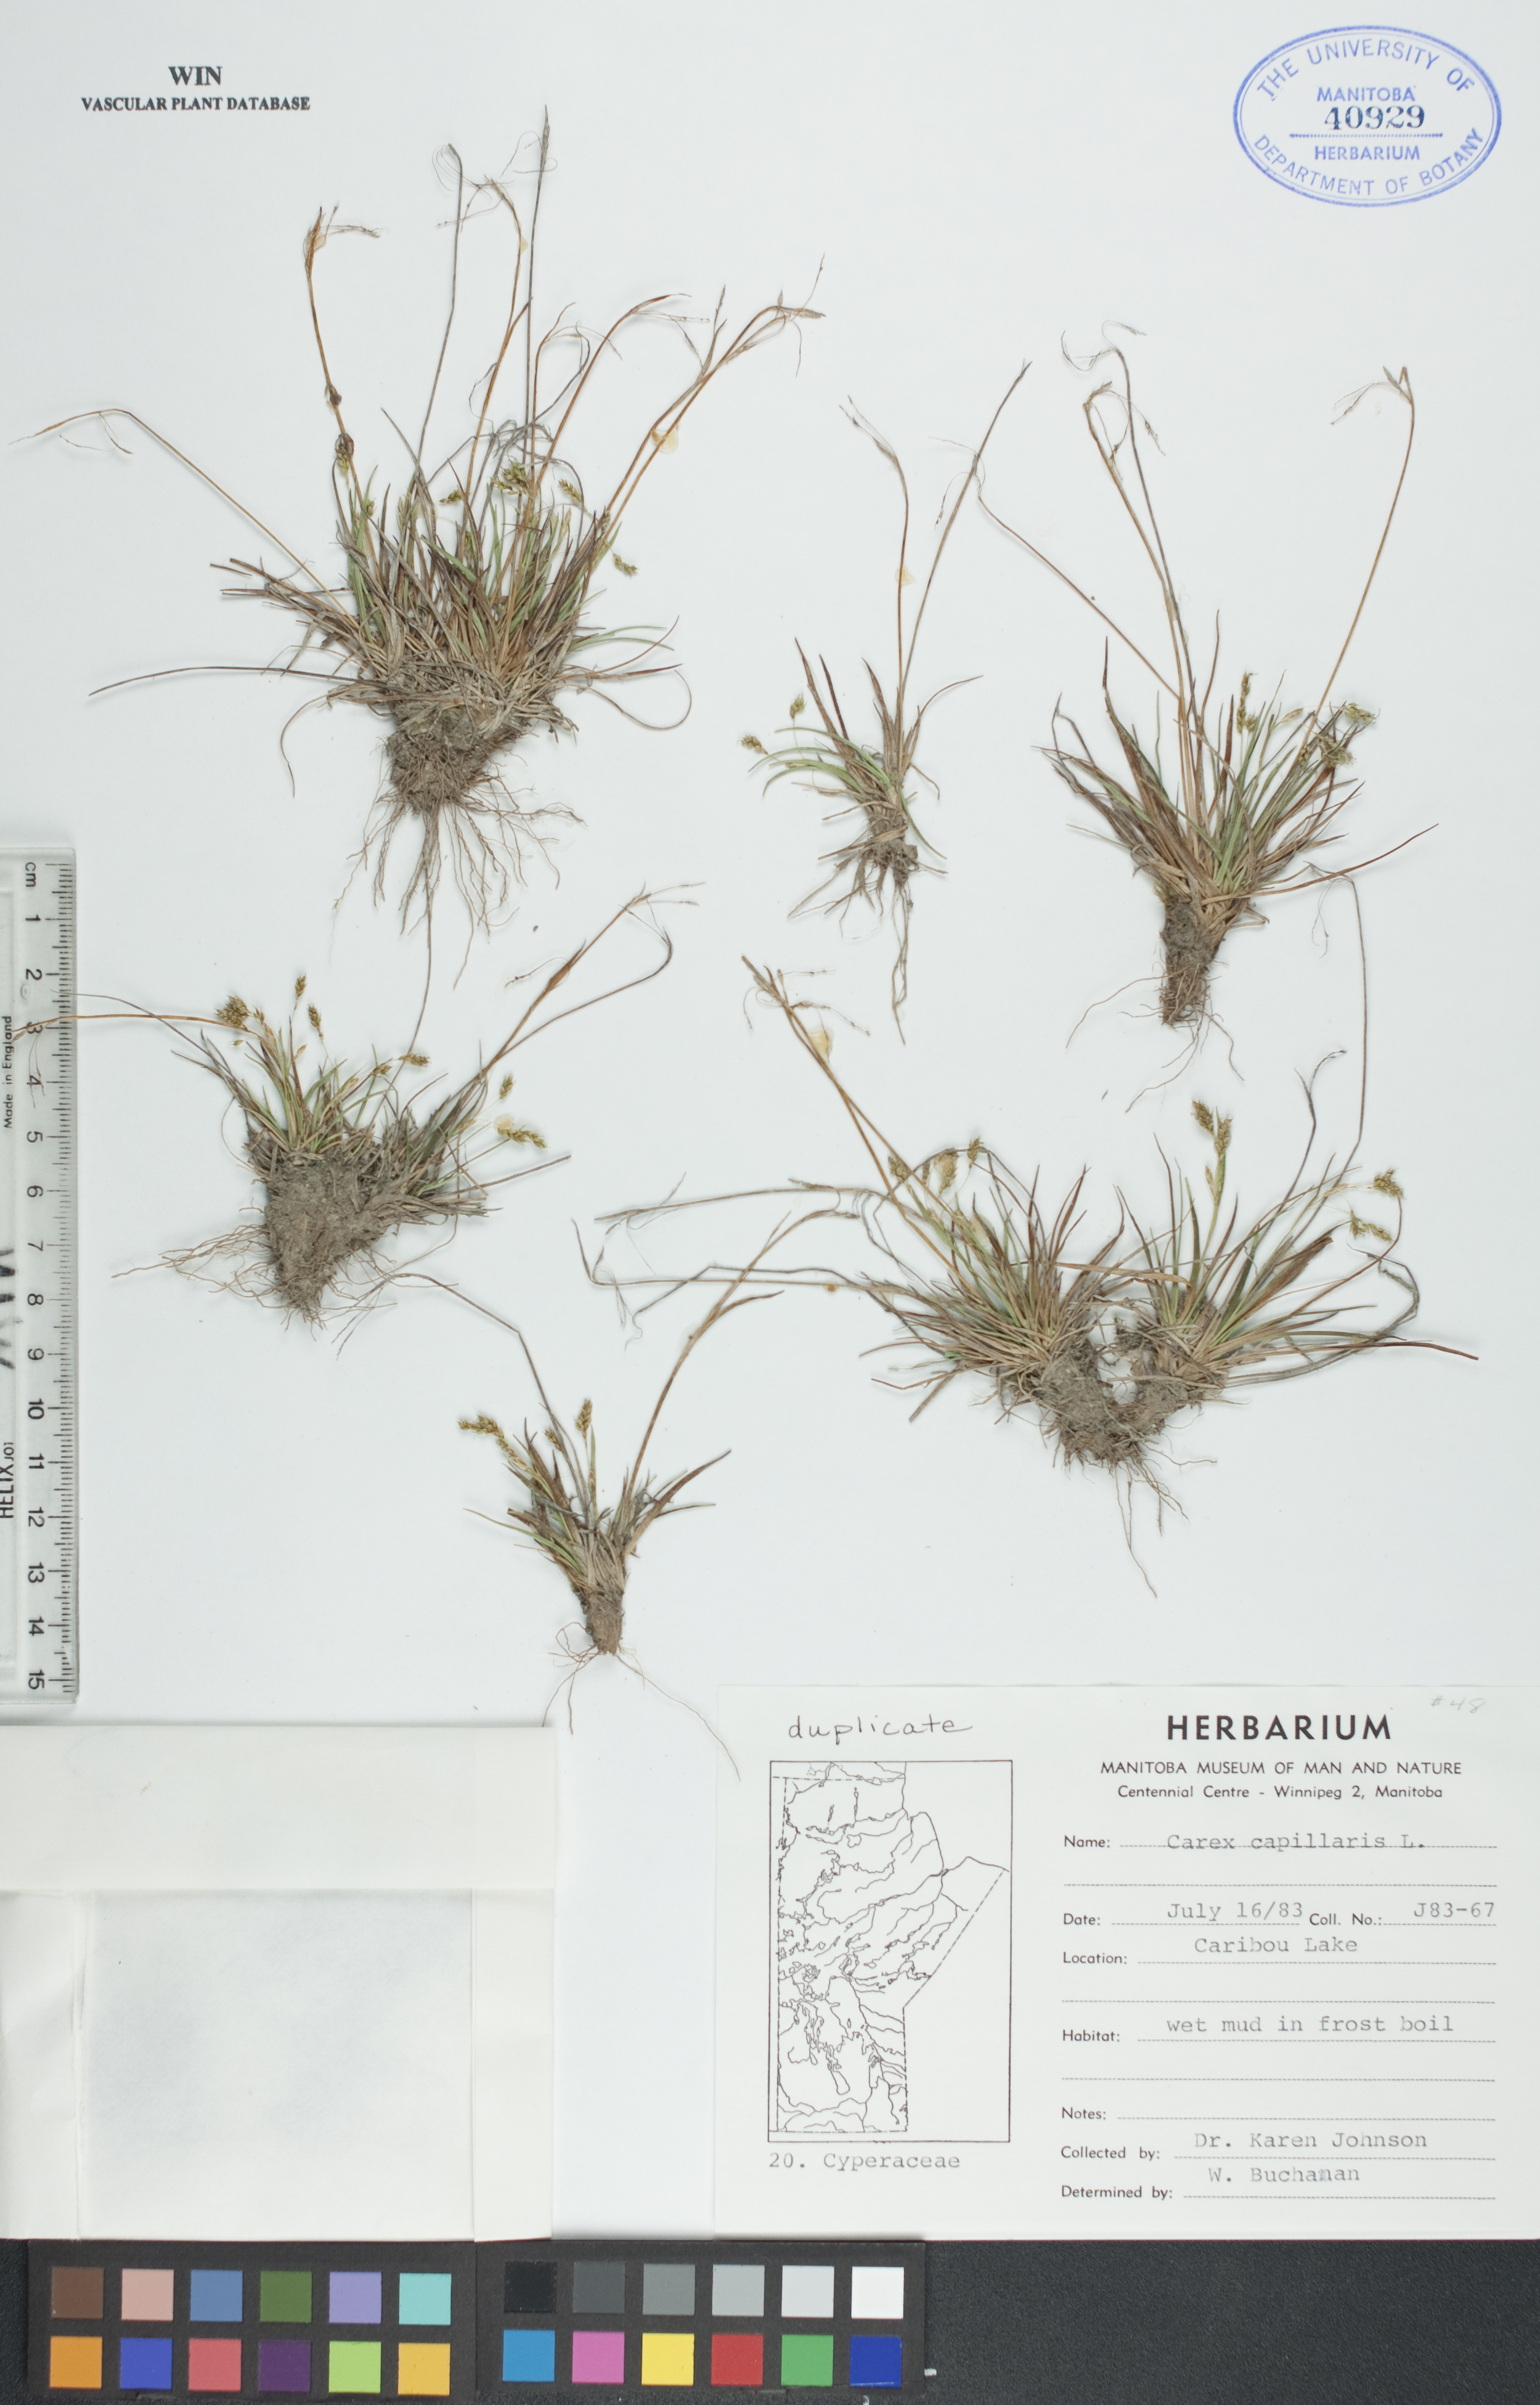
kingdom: Plantae
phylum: Tracheophyta
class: Liliopsida
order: Poales
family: Cyperaceae
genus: Carex
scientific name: Carex capillaris
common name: Hair sedge
